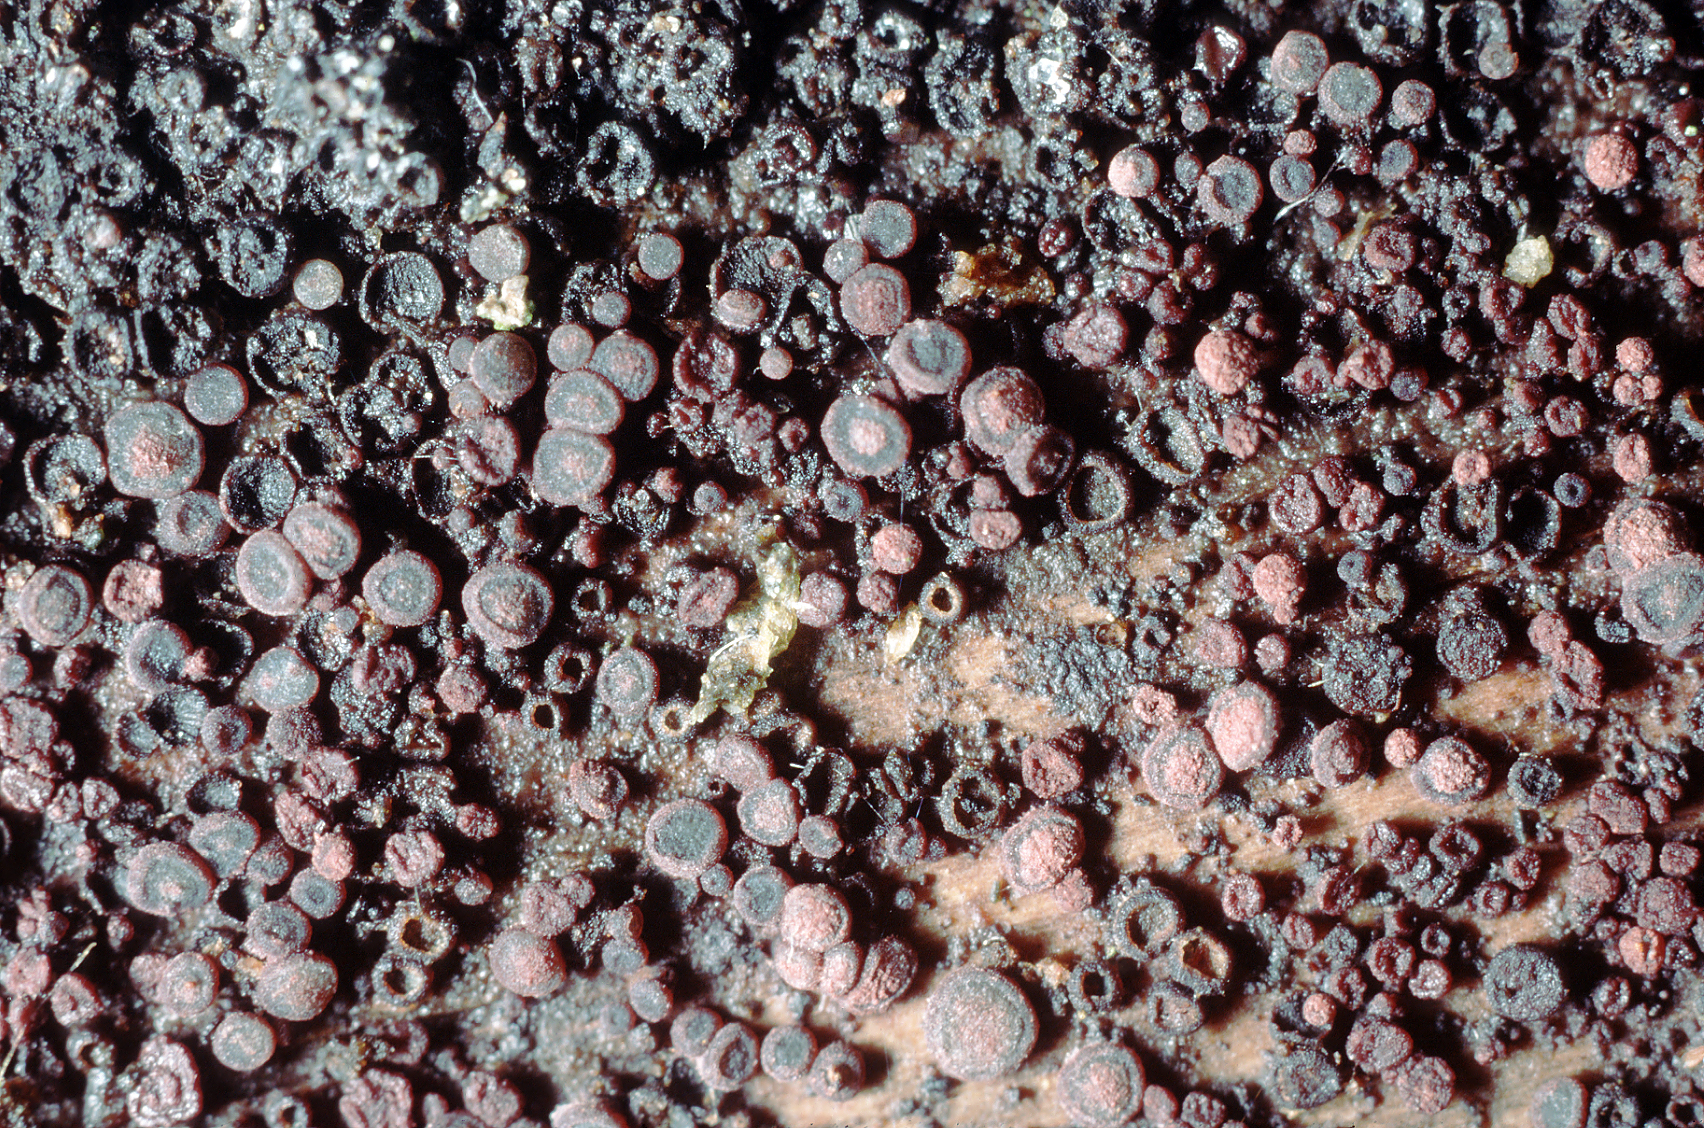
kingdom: Fungi
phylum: Ascomycota
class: Leotiomycetes
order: Helotiales
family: Patellariopsidaceae
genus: Patellariopsis
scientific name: Patellariopsis atrovinosa
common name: mørk vinskive
